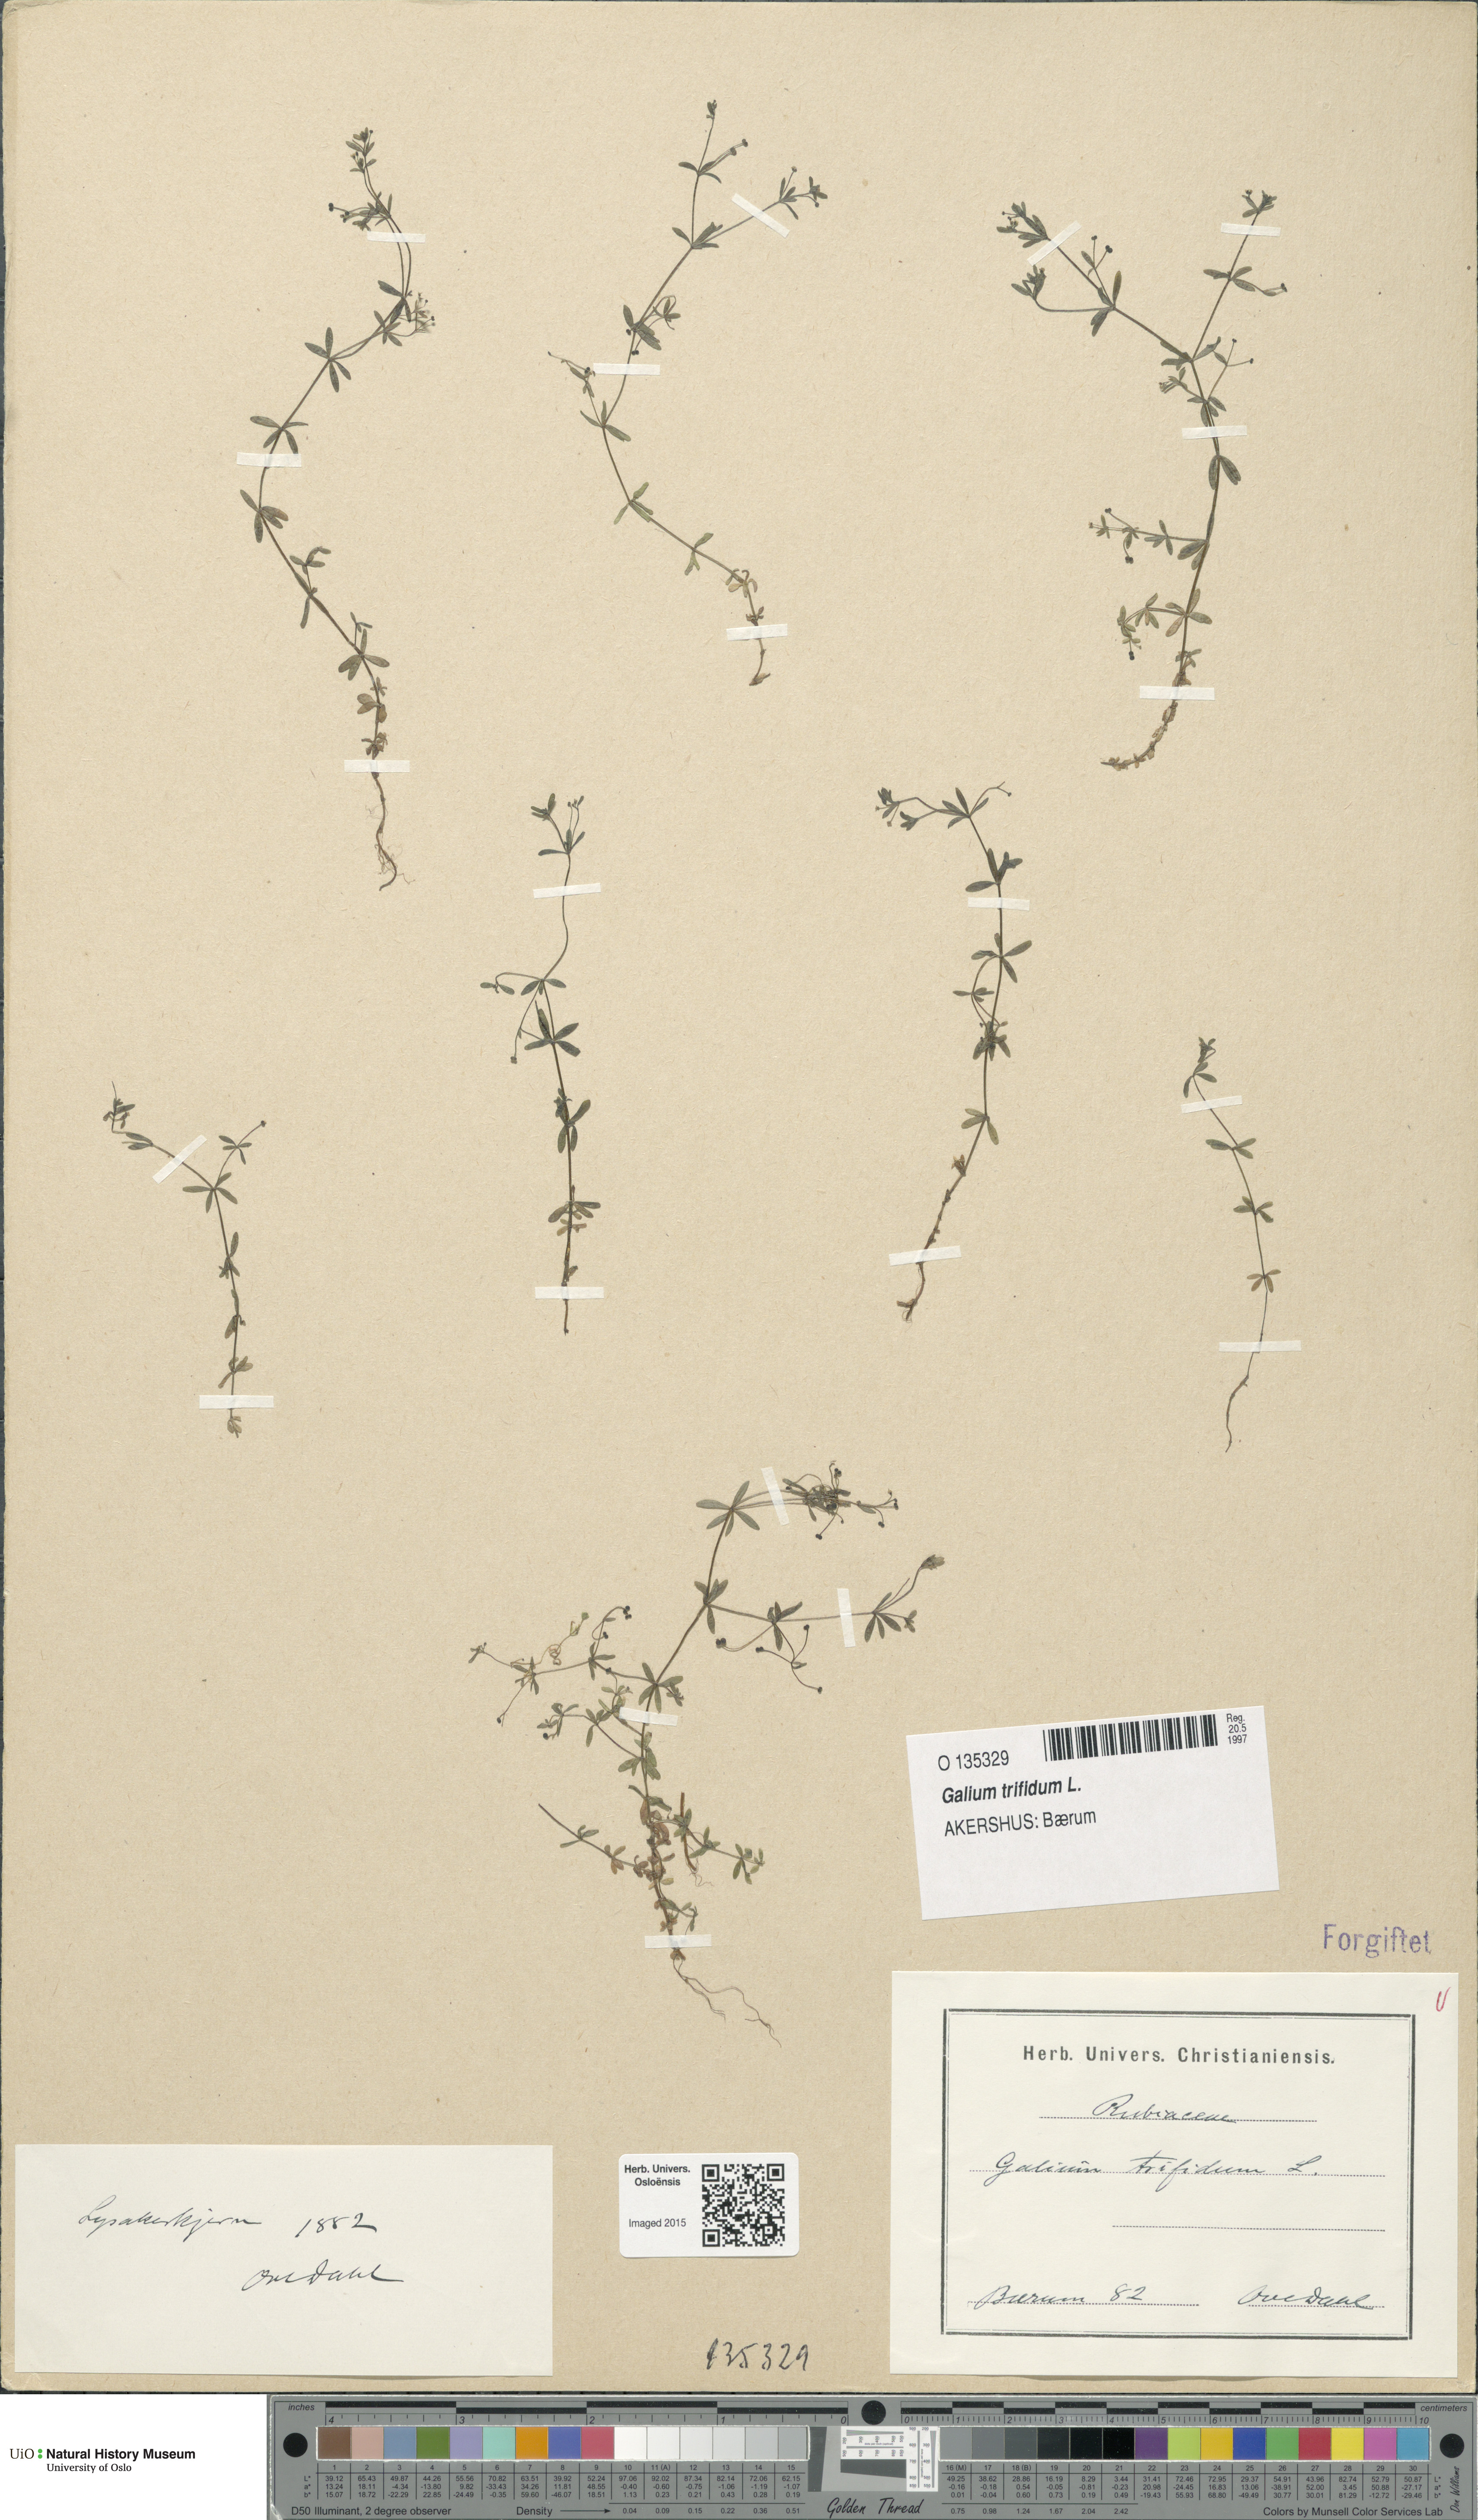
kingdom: Plantae
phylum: Tracheophyta
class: Magnoliopsida
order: Gentianales
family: Rubiaceae
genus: Galium
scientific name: Galium trifidum
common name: Small bedstraw
